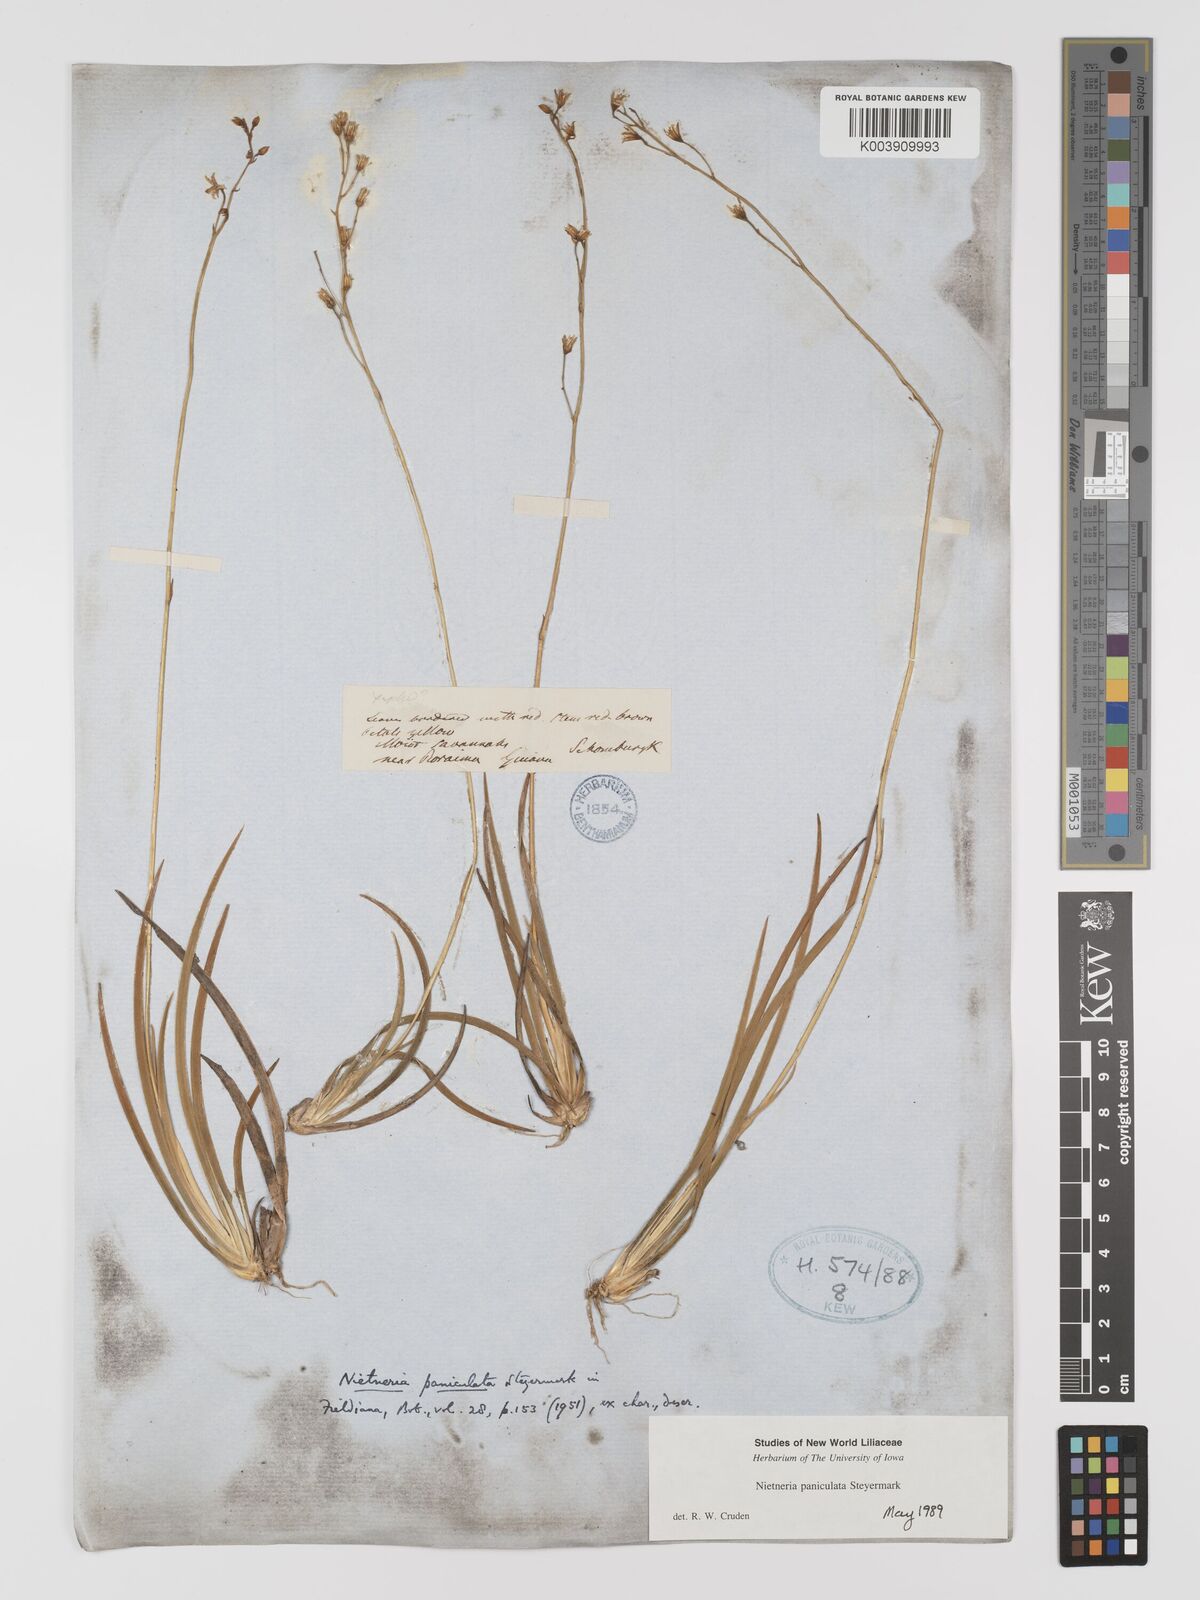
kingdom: Plantae
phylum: Tracheophyta
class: Liliopsida
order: Dioscoreales
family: Nartheciaceae
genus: Nietneria
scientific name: Nietneria paniculata
